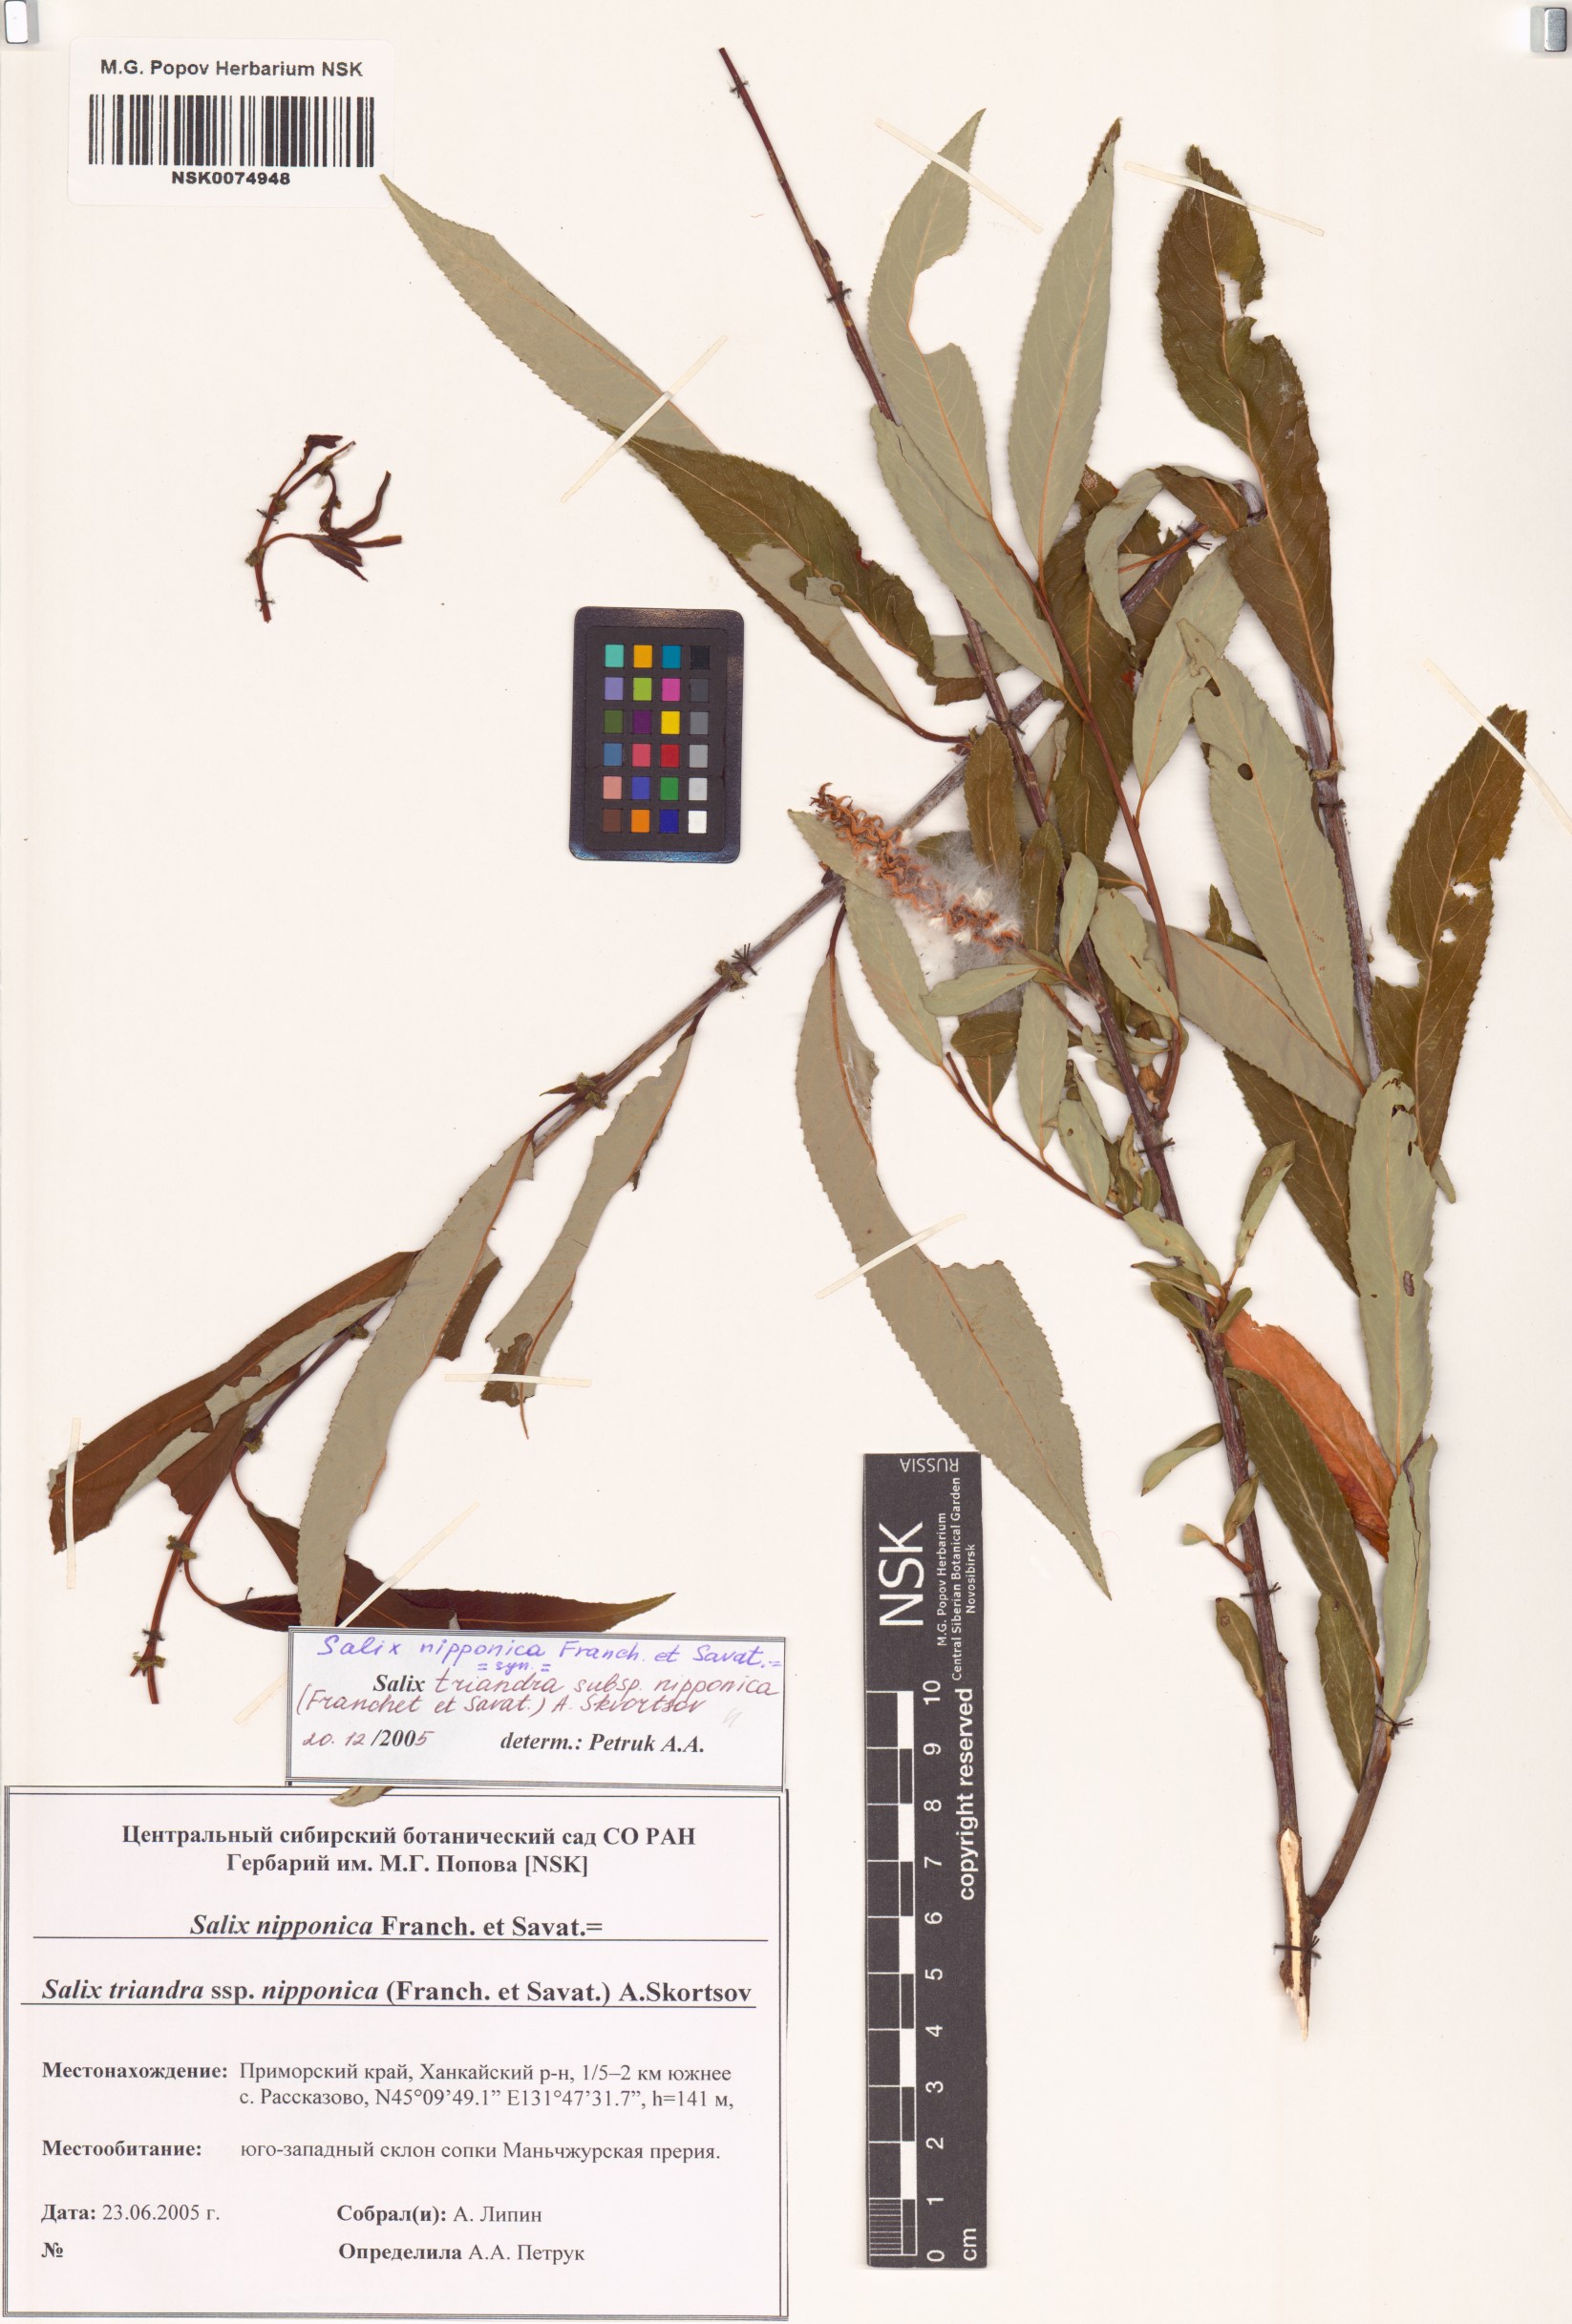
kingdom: Plantae
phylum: Tracheophyta
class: Magnoliopsida
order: Malpighiales
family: Salicaceae
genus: Salix
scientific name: Salix subfragilis
